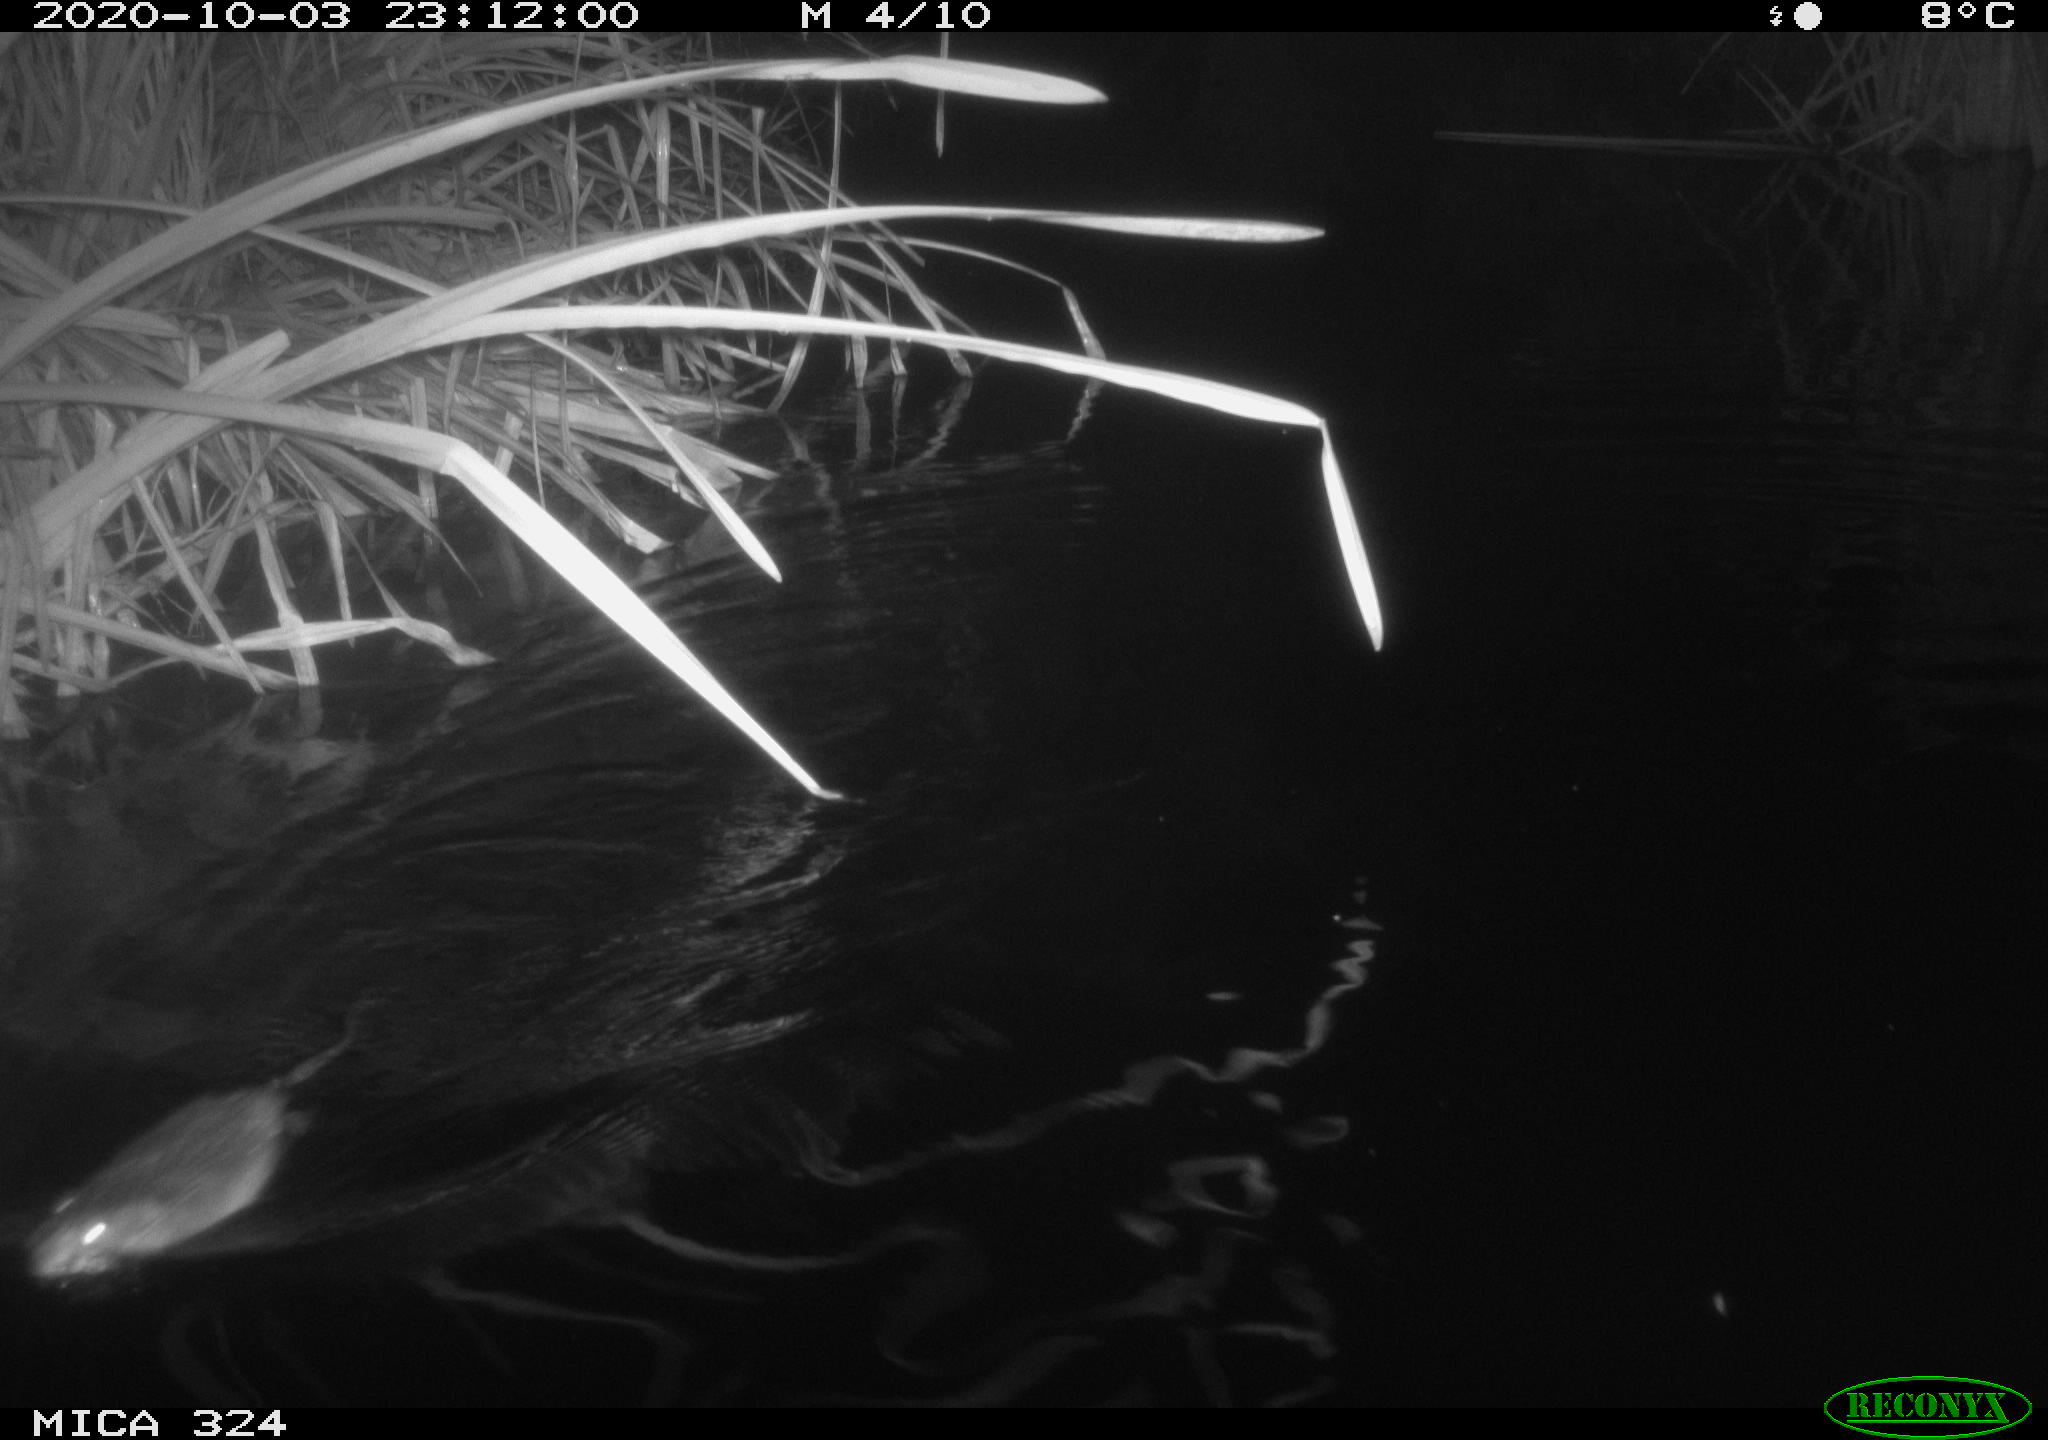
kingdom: Animalia
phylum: Chordata
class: Mammalia
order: Rodentia
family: Cricetidae
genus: Ondatra
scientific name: Ondatra zibethicus
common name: Muskrat
